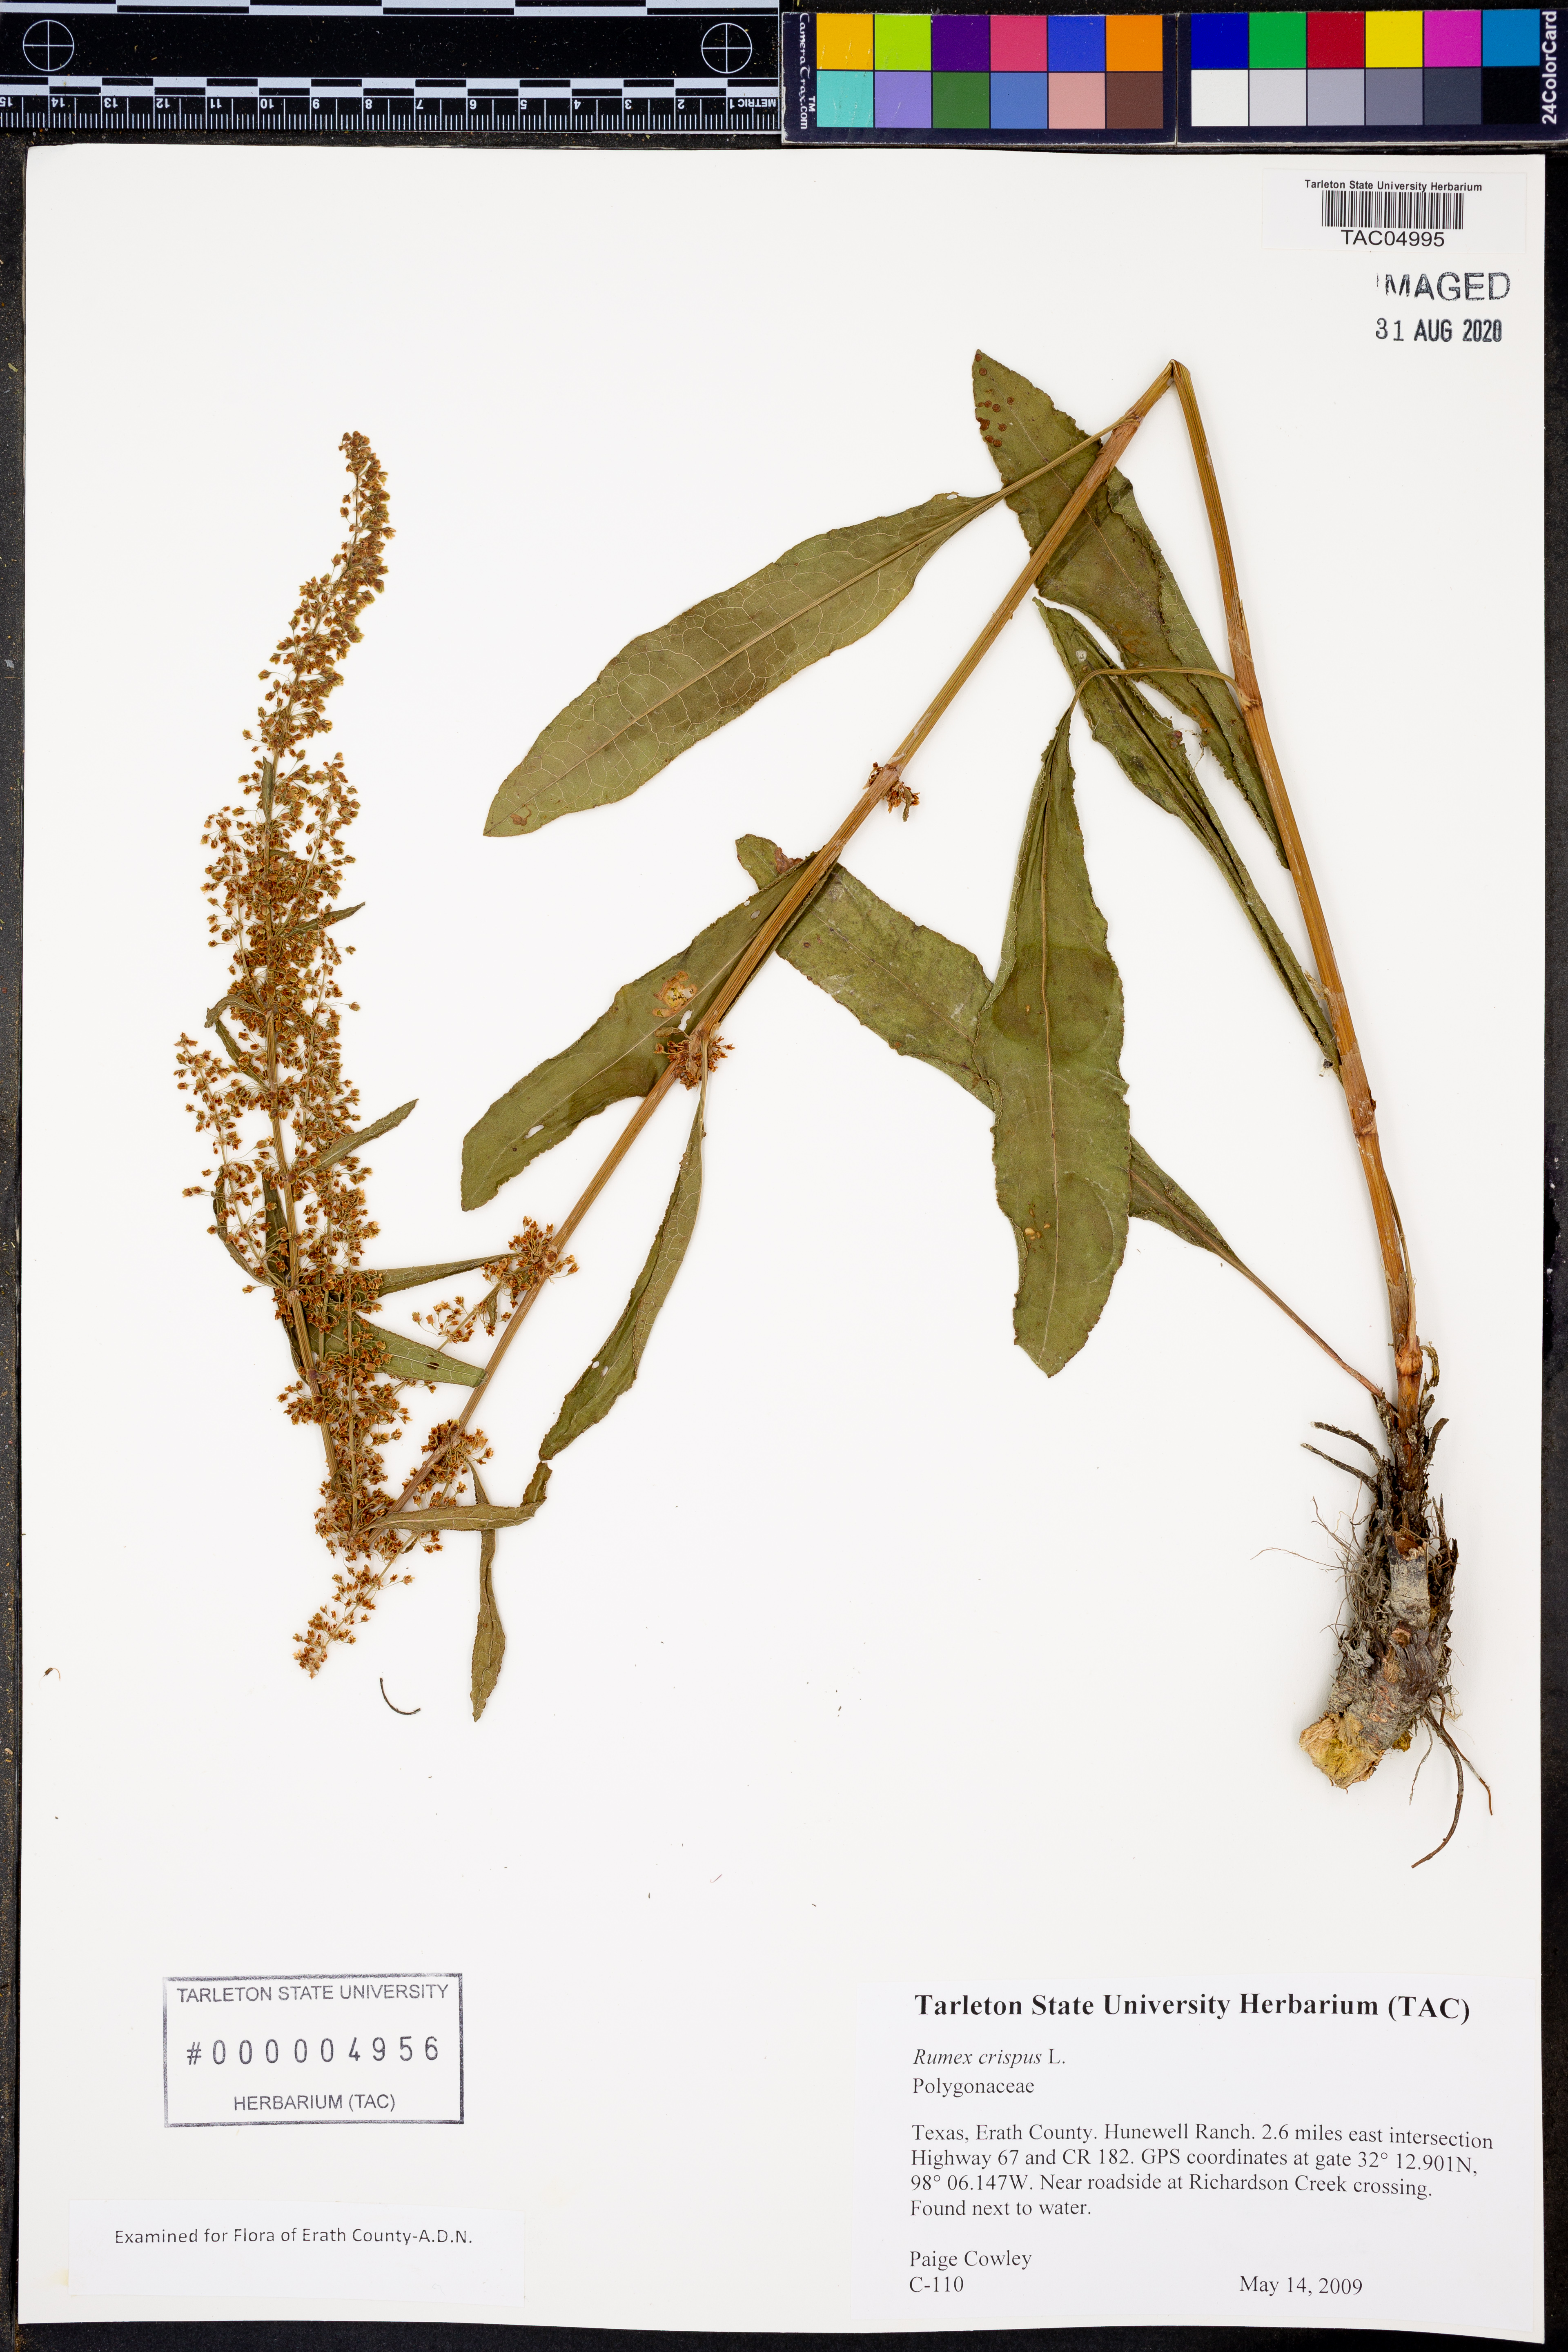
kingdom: Plantae
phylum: Tracheophyta
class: Magnoliopsida
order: Caryophyllales
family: Polygonaceae
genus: Rumex
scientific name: Rumex crispus
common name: Curled dock
